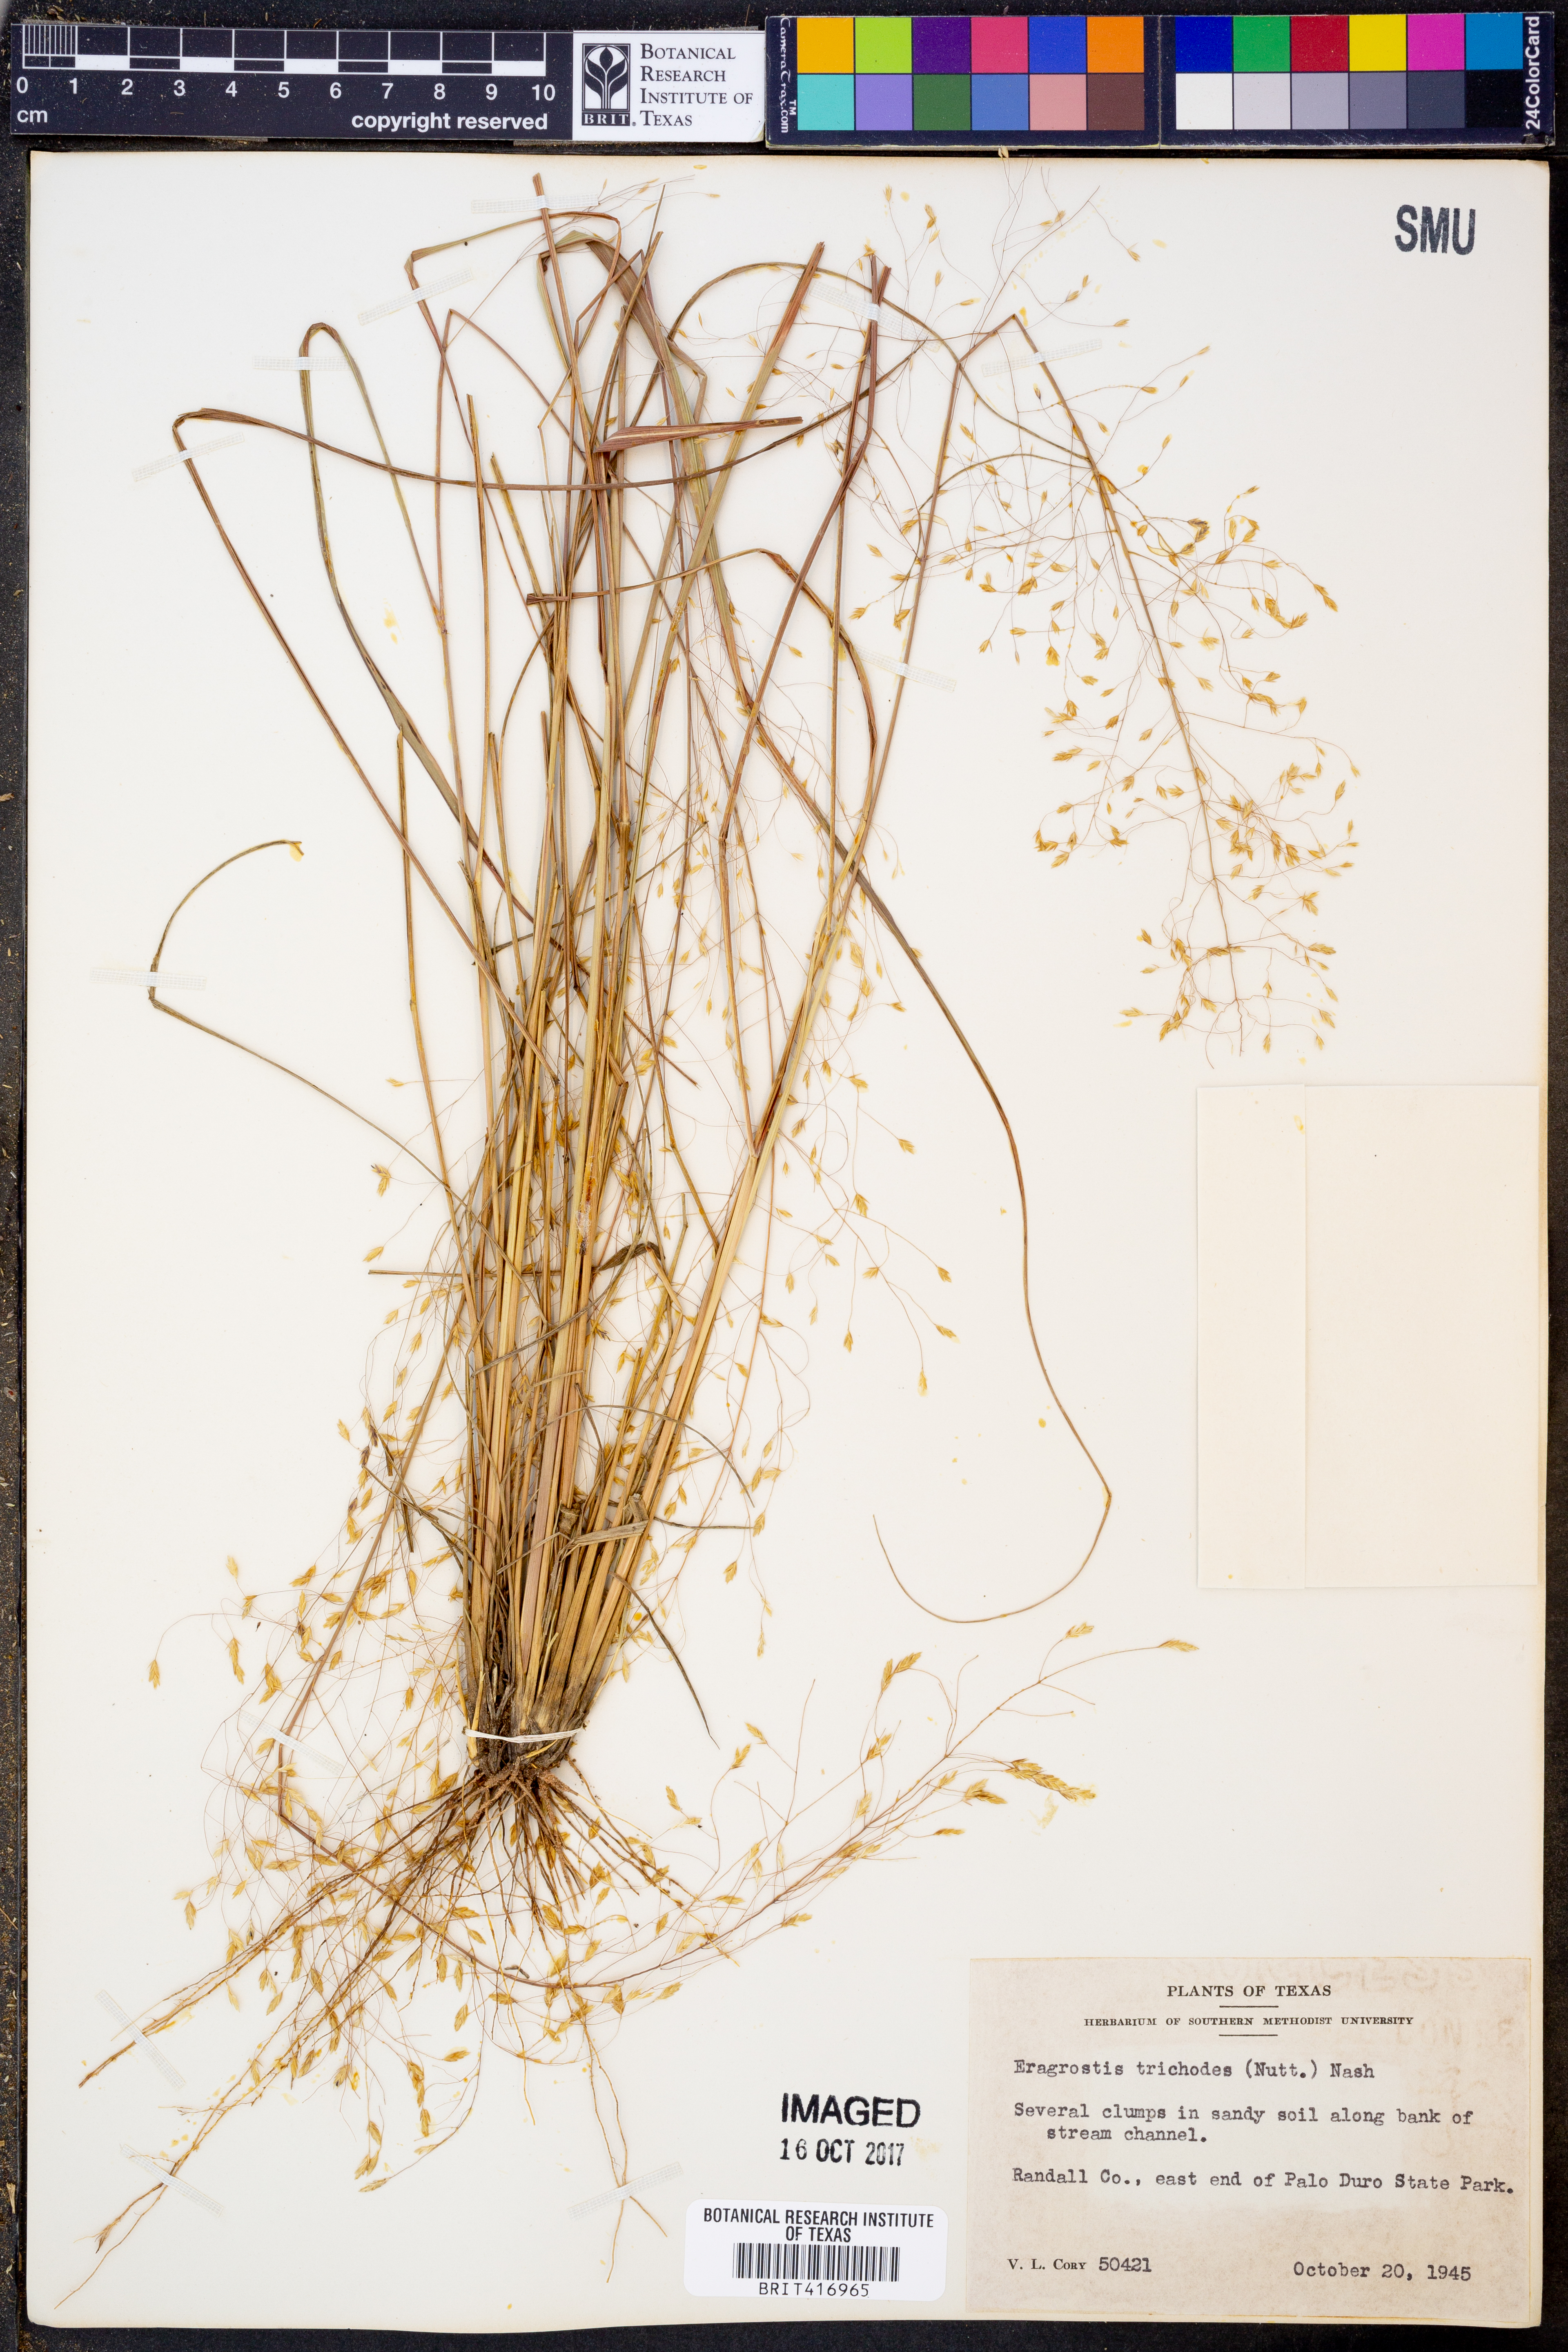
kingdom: Plantae
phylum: Tracheophyta
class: Liliopsida
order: Poales
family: Poaceae
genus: Eragrostis
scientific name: Eragrostis trichodes
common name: Sand love grass
